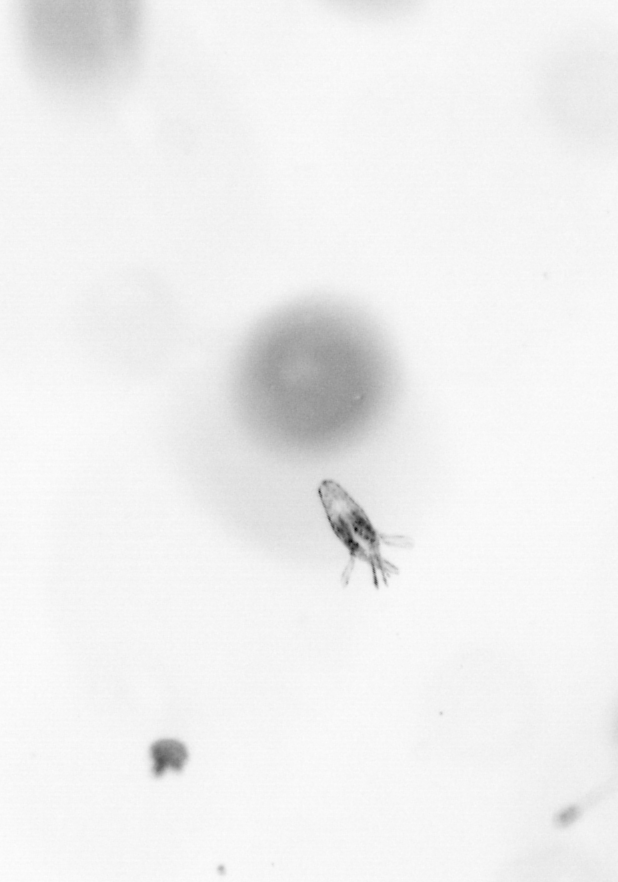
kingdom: Animalia
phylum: Arthropoda
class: Copepoda
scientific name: Copepoda
